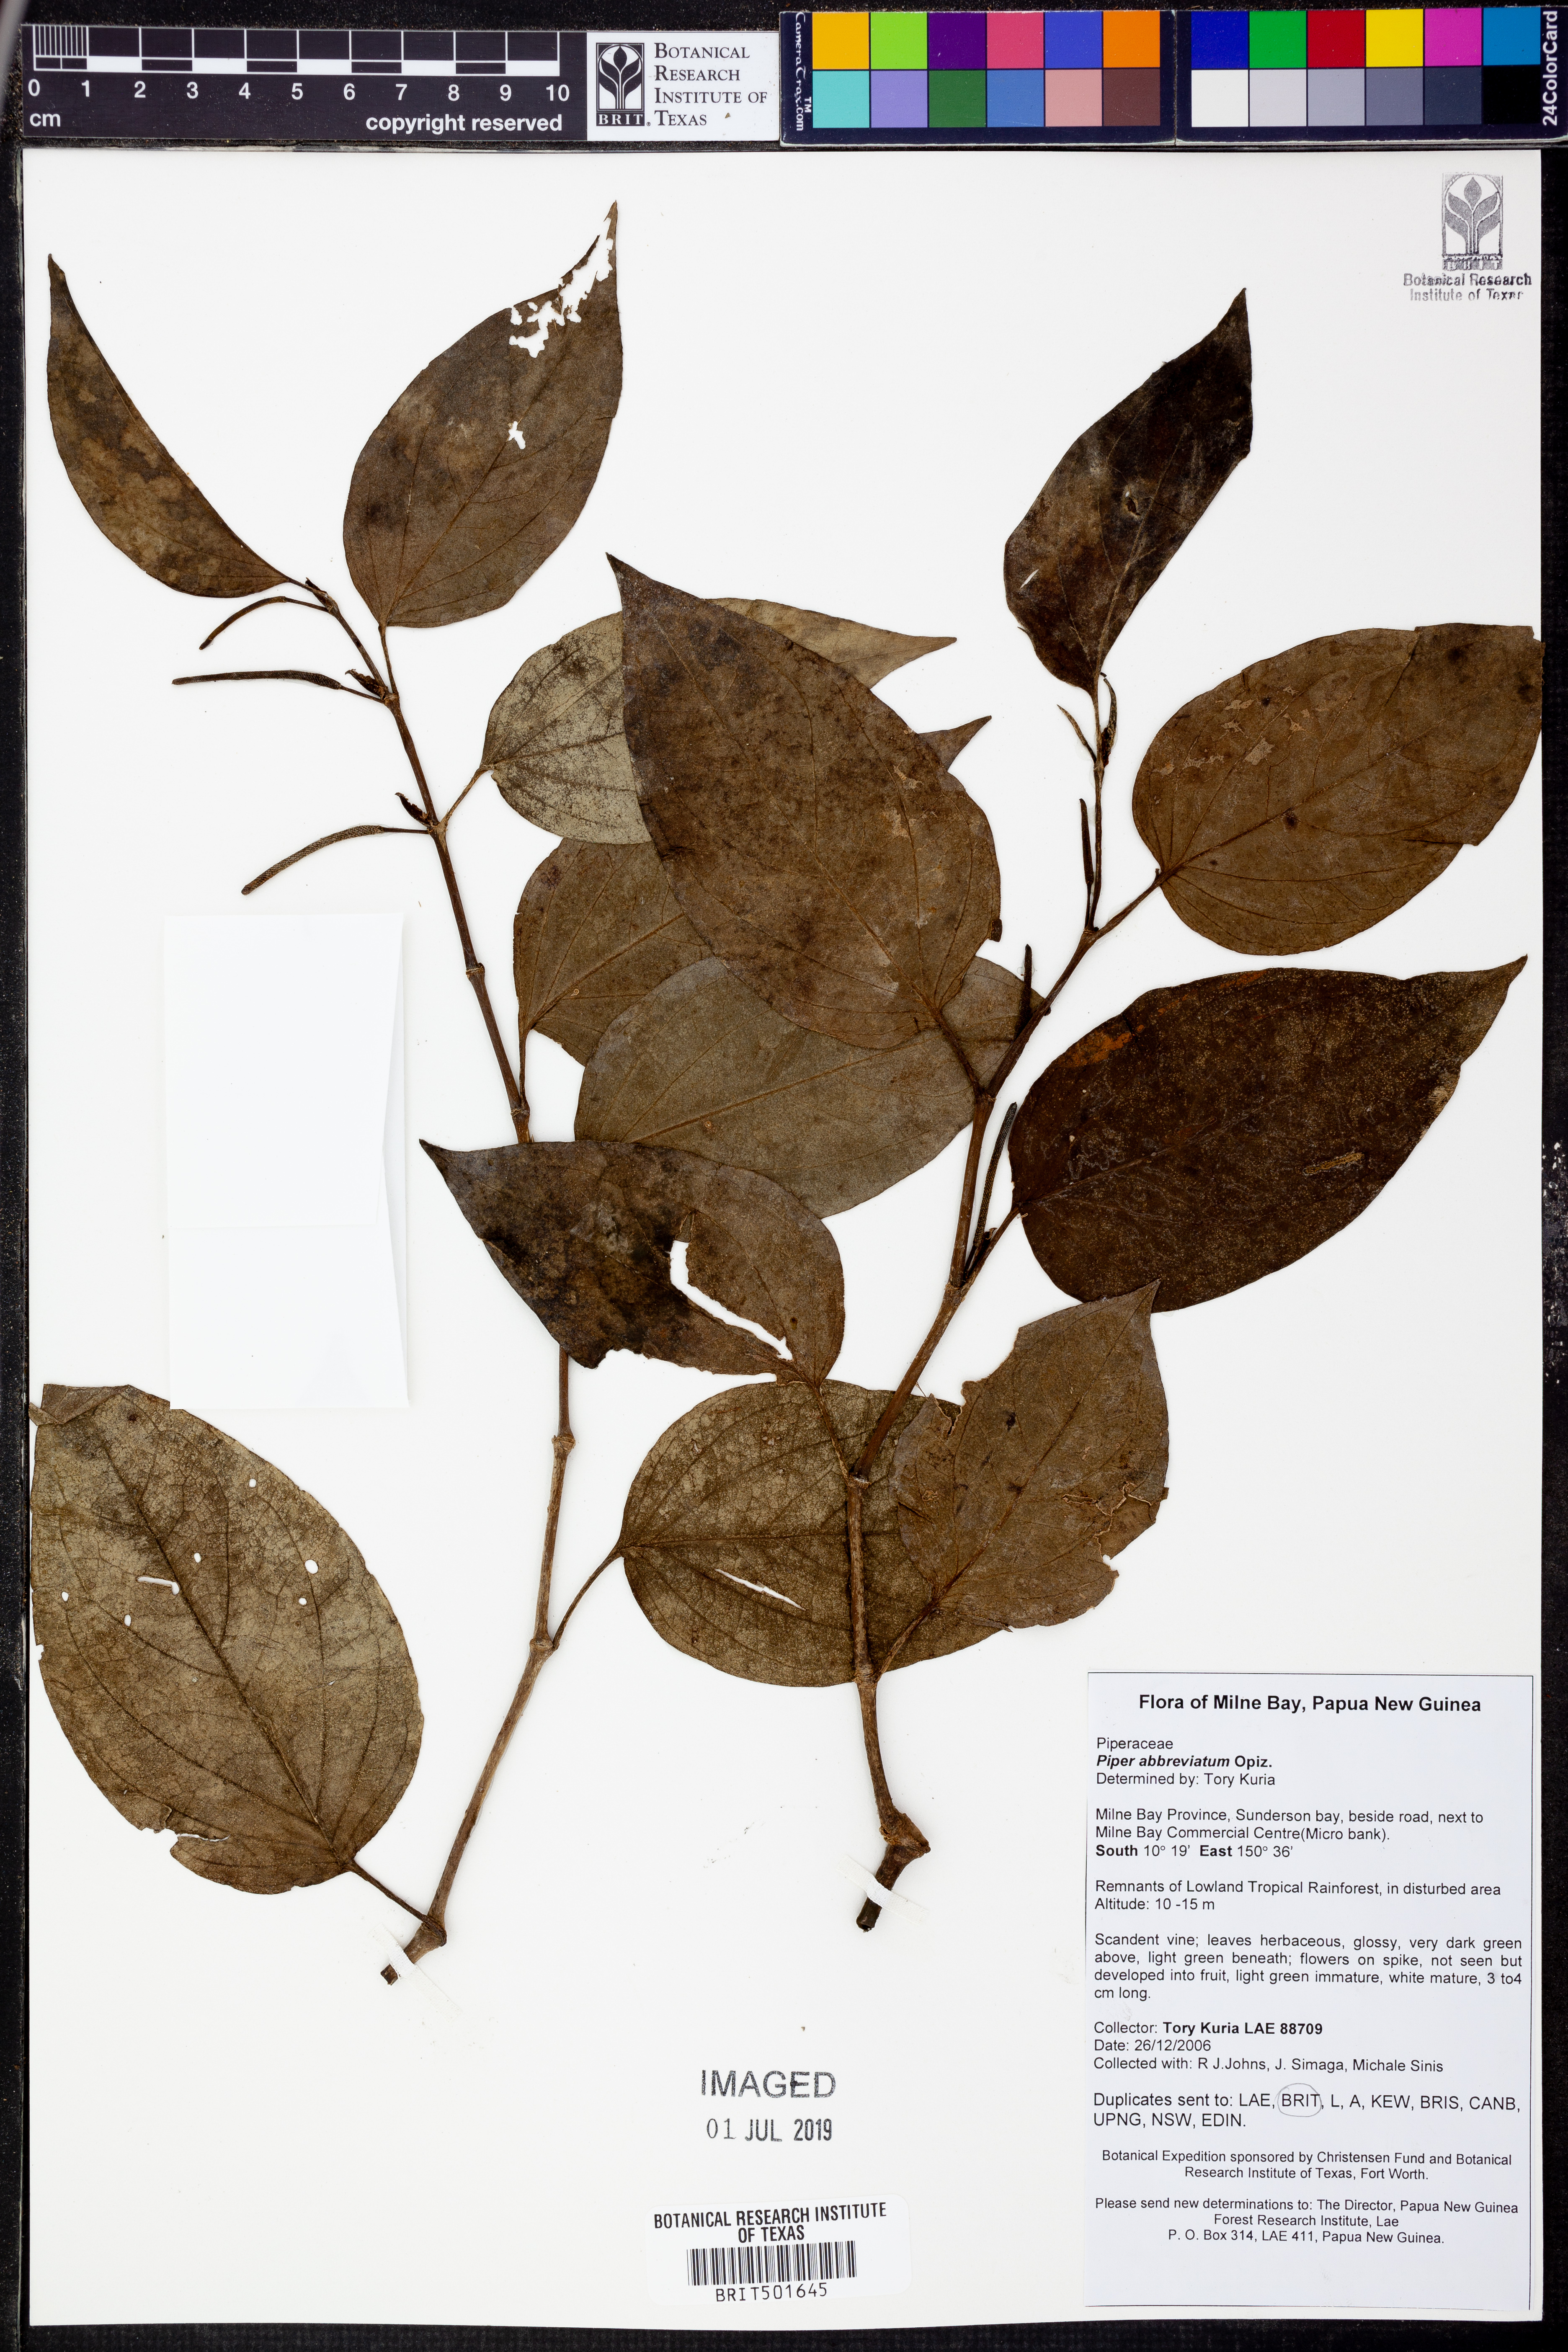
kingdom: Plantae
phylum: Tracheophyta
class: Magnoliopsida
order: Piperales
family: Piperaceae
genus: Piper
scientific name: Piper abbreviatum
